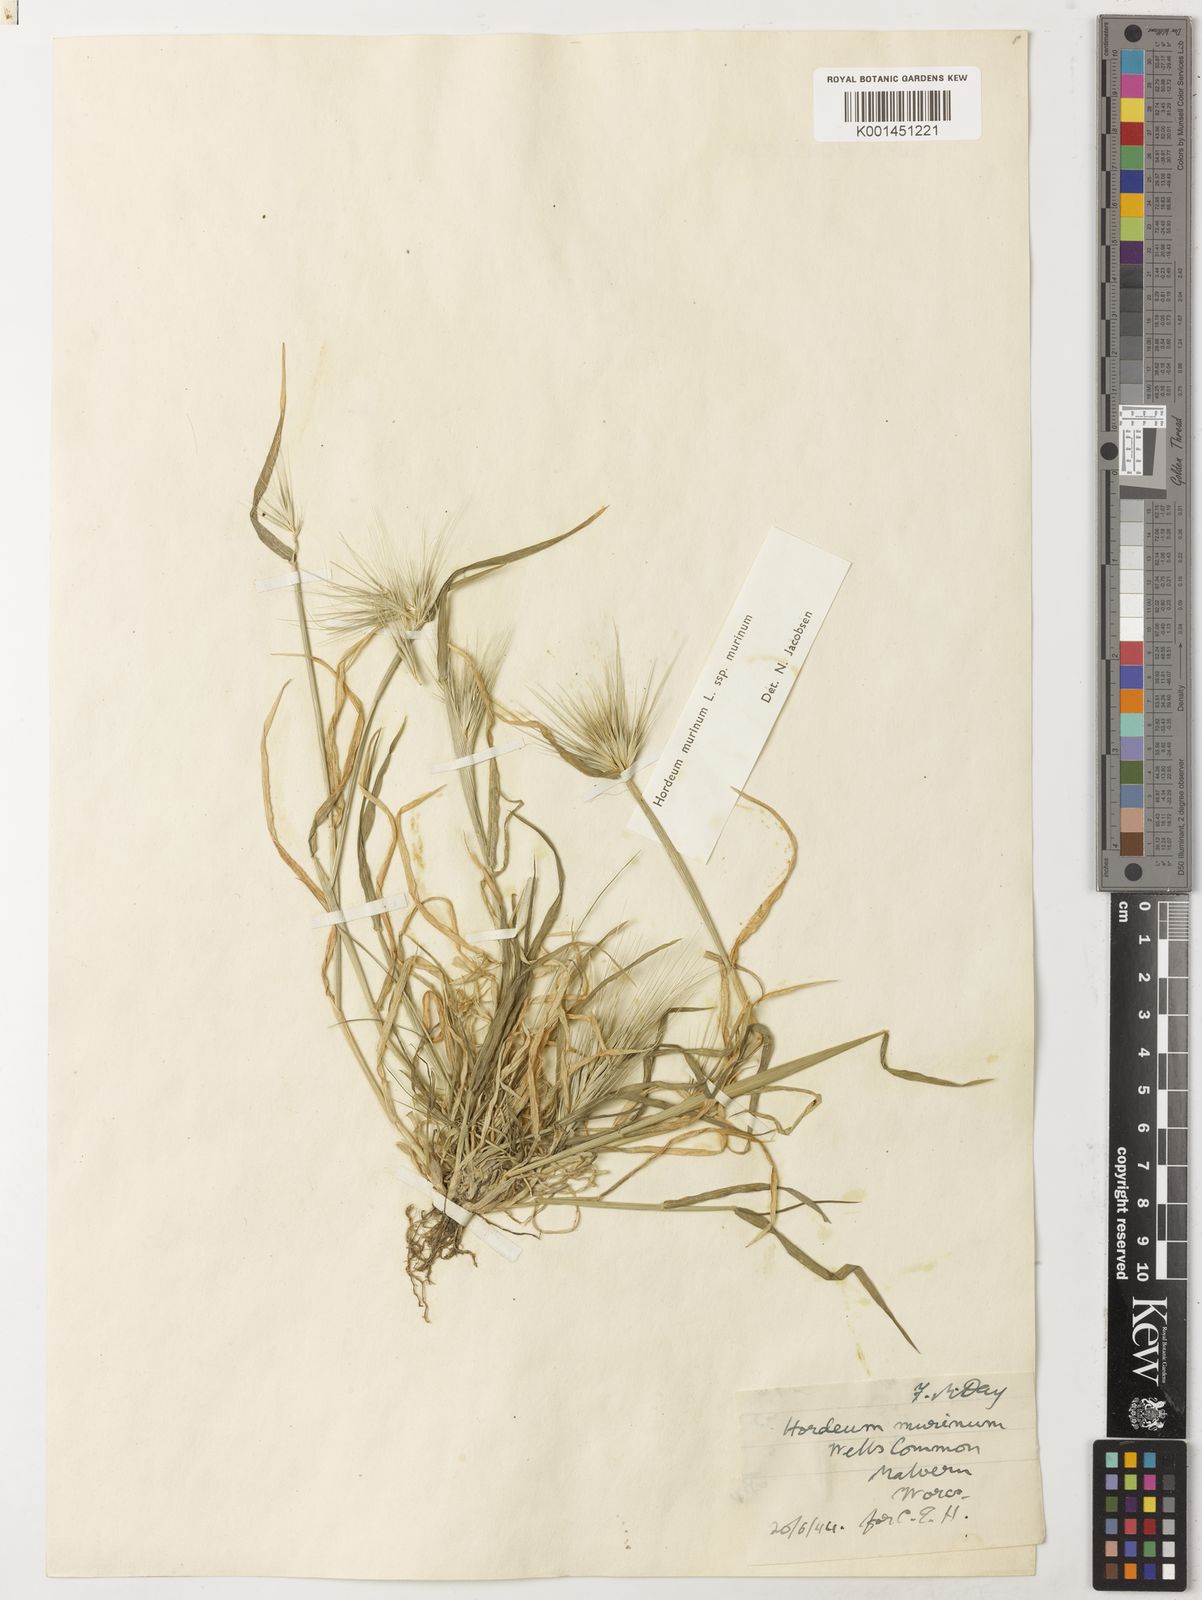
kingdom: Plantae
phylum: Tracheophyta
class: Liliopsida
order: Poales
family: Poaceae
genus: Hordeum
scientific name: Hordeum murinum
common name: Wall barley
